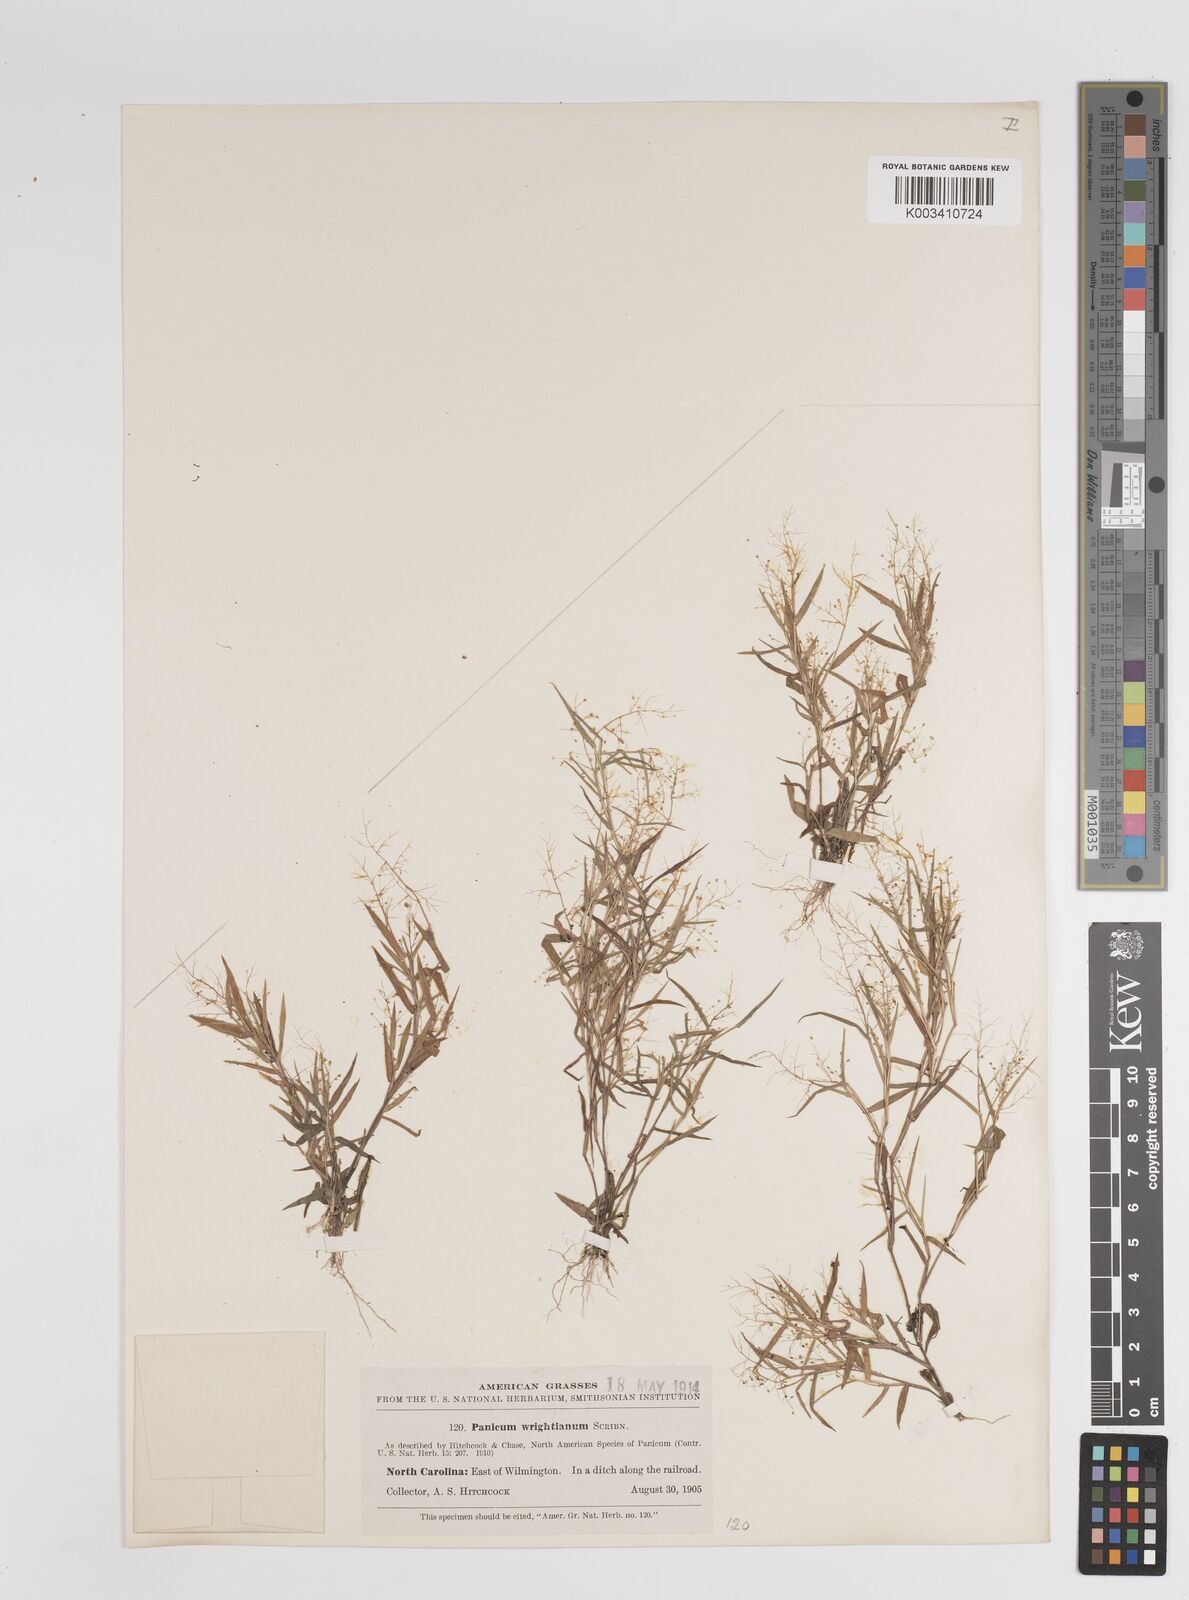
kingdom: Plantae
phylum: Tracheophyta
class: Liliopsida
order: Poales
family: Poaceae
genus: Dichanthelium
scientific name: Dichanthelium wrightianum
